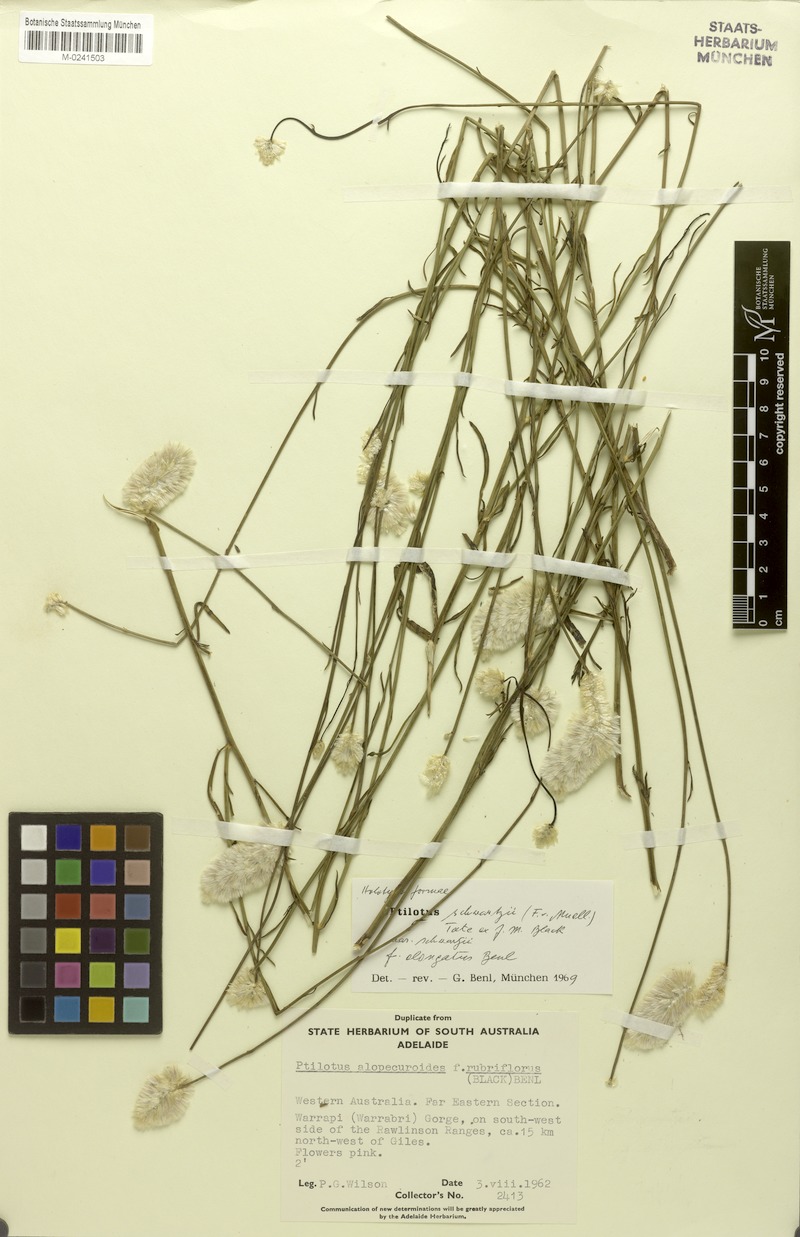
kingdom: Plantae
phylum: Tracheophyta
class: Magnoliopsida
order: Caryophyllales
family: Amaranthaceae
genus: Ptilotus
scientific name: Ptilotus schwartzii
